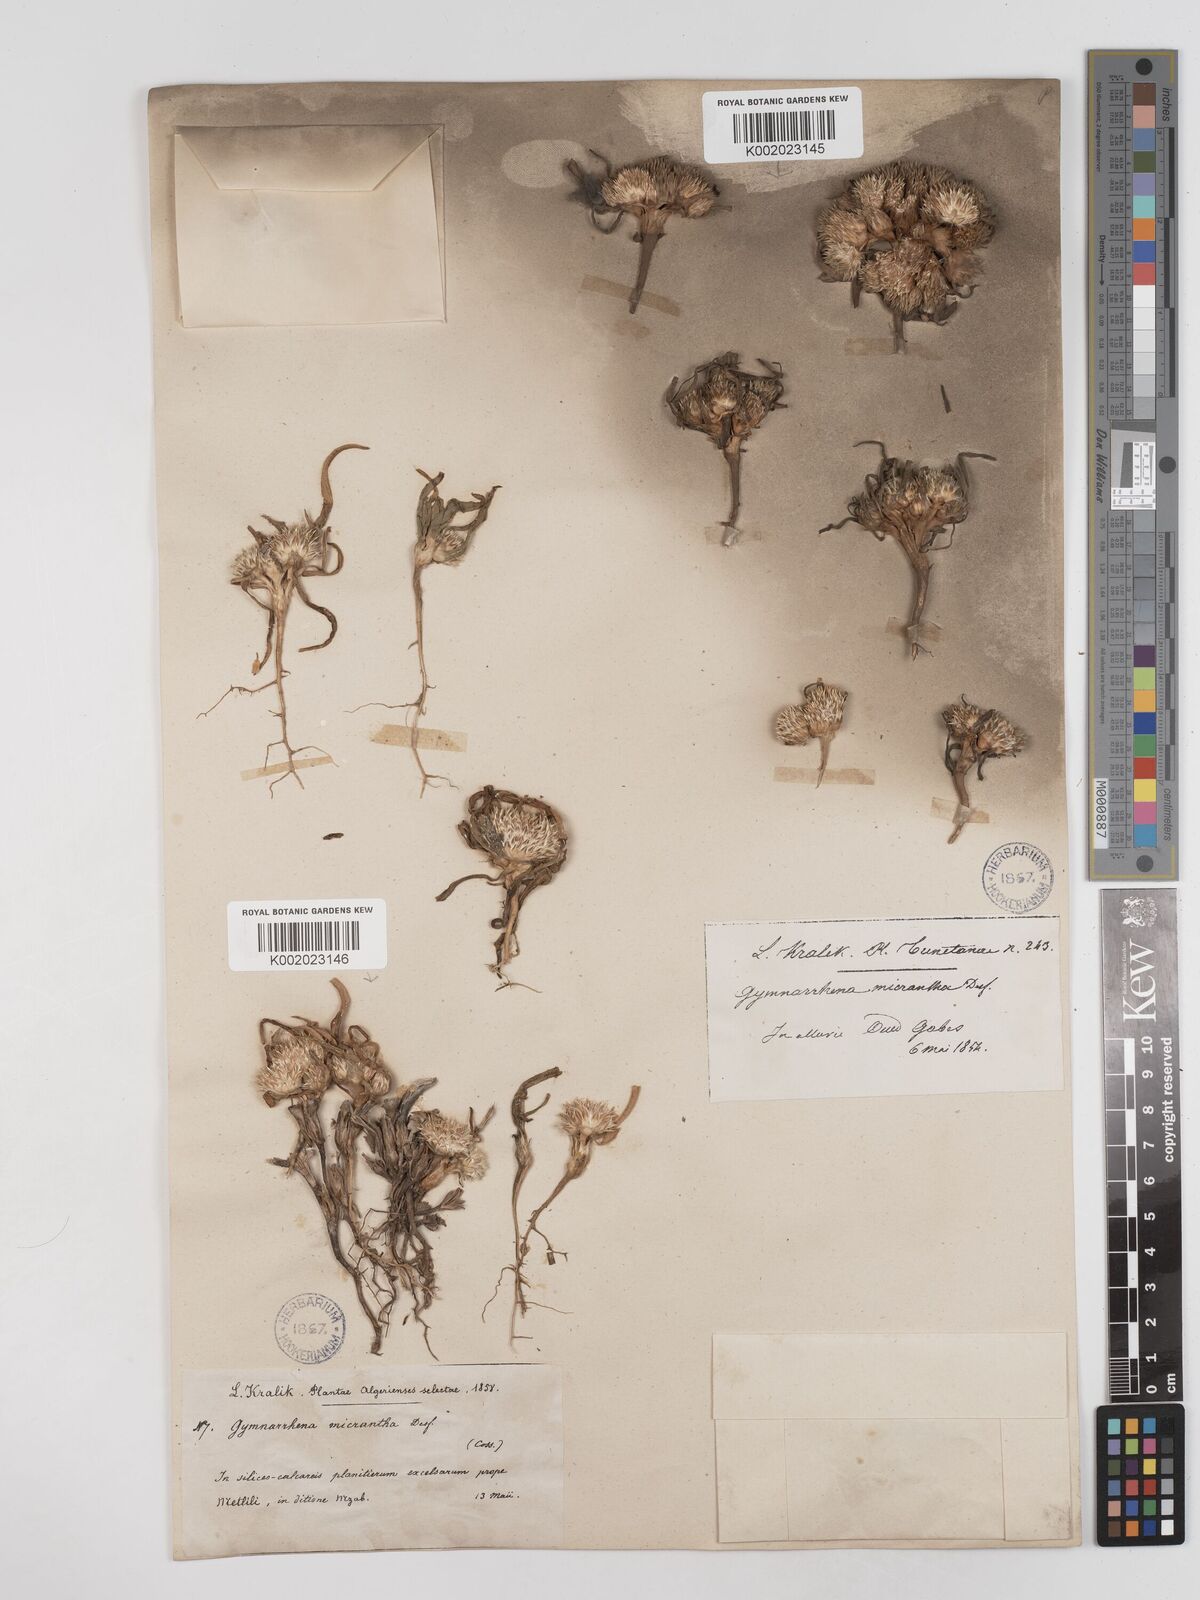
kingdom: Plantae
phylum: Tracheophyta
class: Magnoliopsida
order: Asterales
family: Asteraceae
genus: Gymnarrhena
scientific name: Gymnarrhena micrantha
